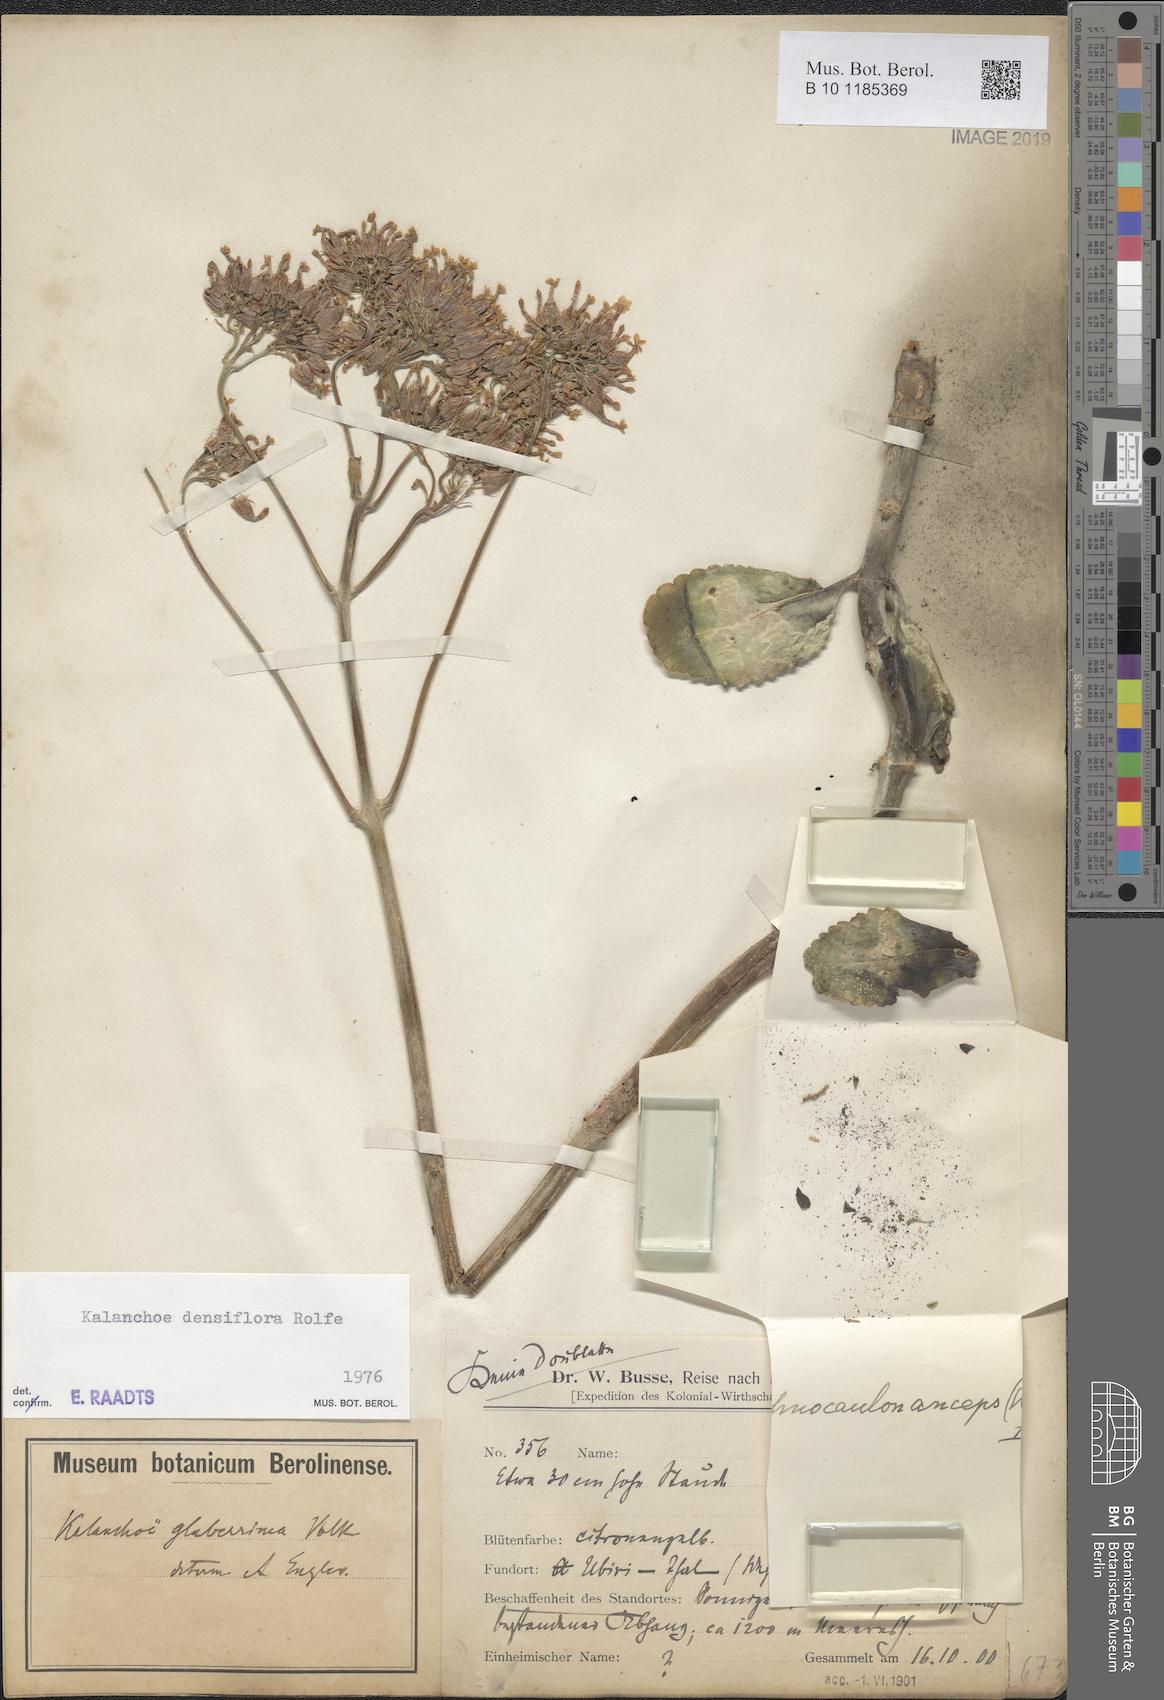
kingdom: Plantae
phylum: Tracheophyta
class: Magnoliopsida
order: Saxifragales
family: Crassulaceae
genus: Kalanchoe
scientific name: Kalanchoe densiflora
